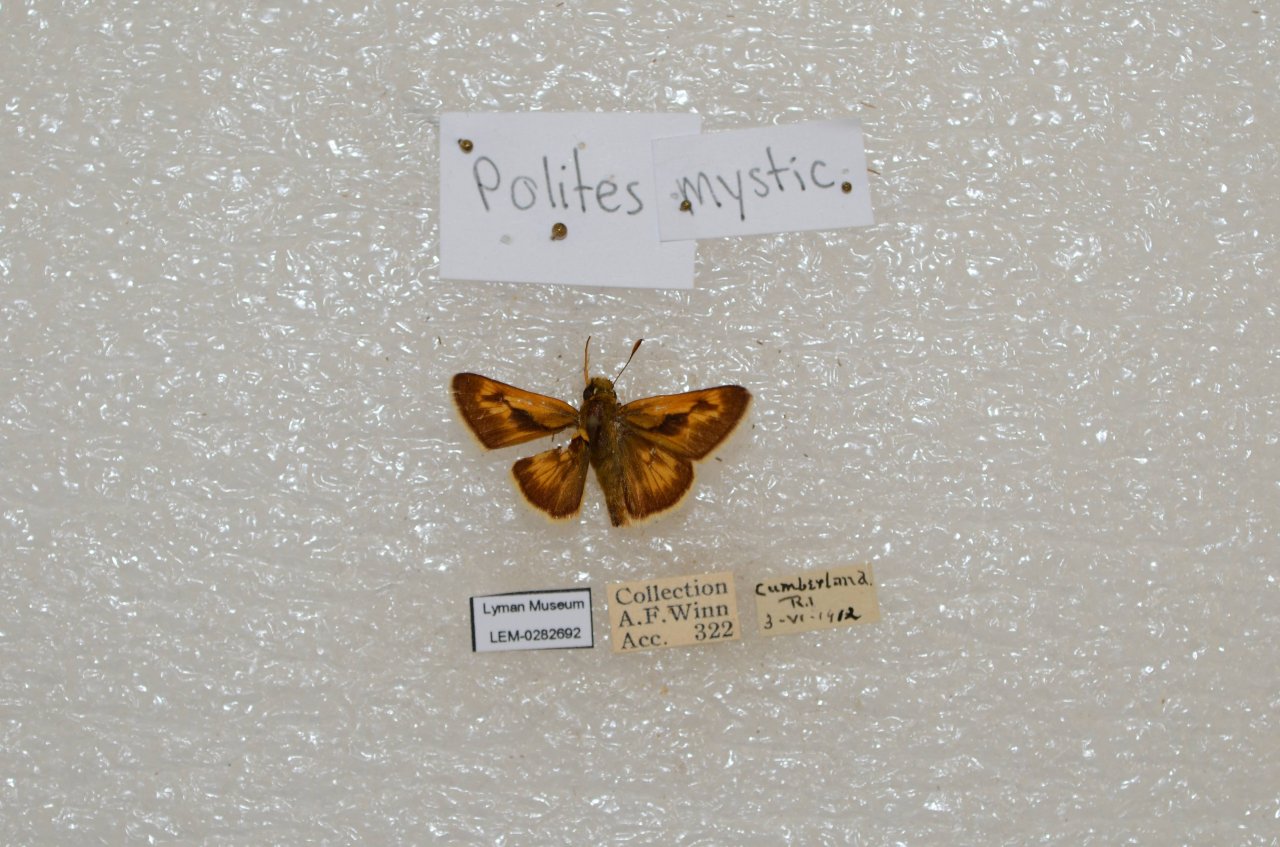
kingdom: Animalia
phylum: Arthropoda
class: Insecta
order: Lepidoptera
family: Hesperiidae
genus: Polites
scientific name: Polites
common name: Long Dash Skipper
